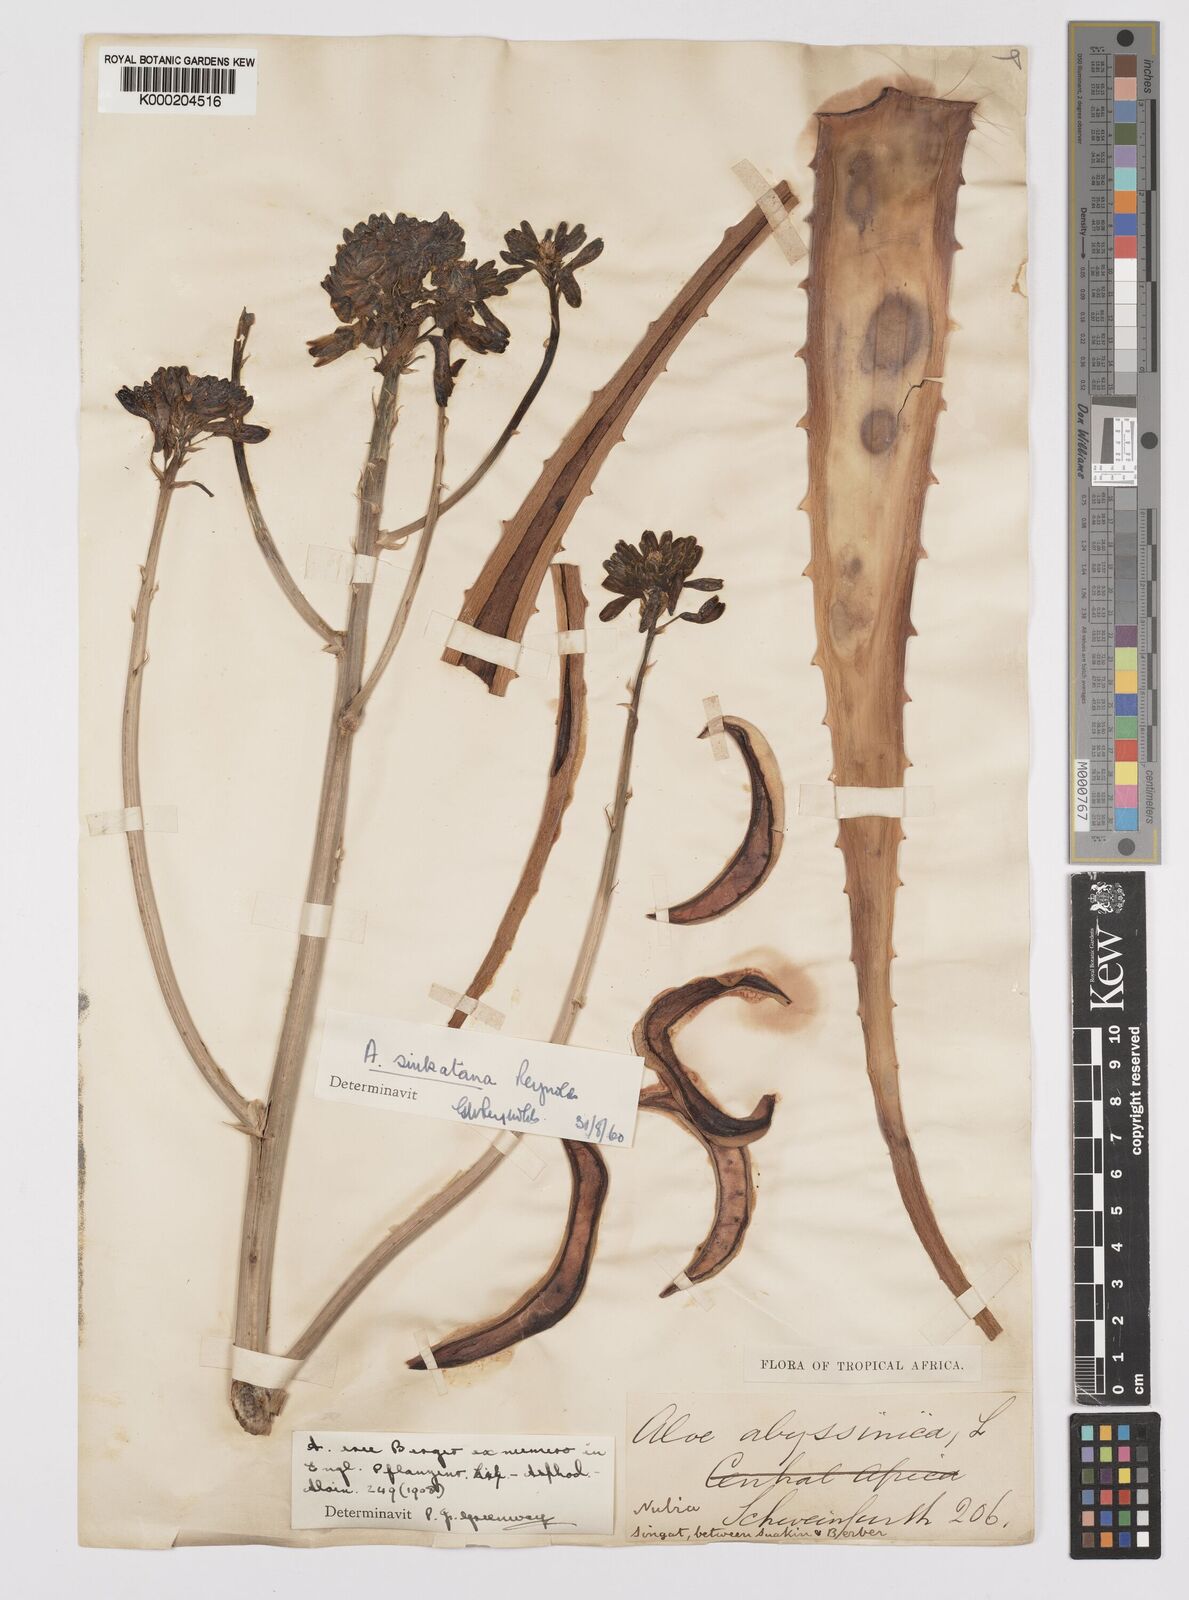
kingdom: Plantae
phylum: Tracheophyta
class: Liliopsida
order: Asparagales
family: Asphodelaceae
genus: Aloe
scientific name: Aloe sinkatana
